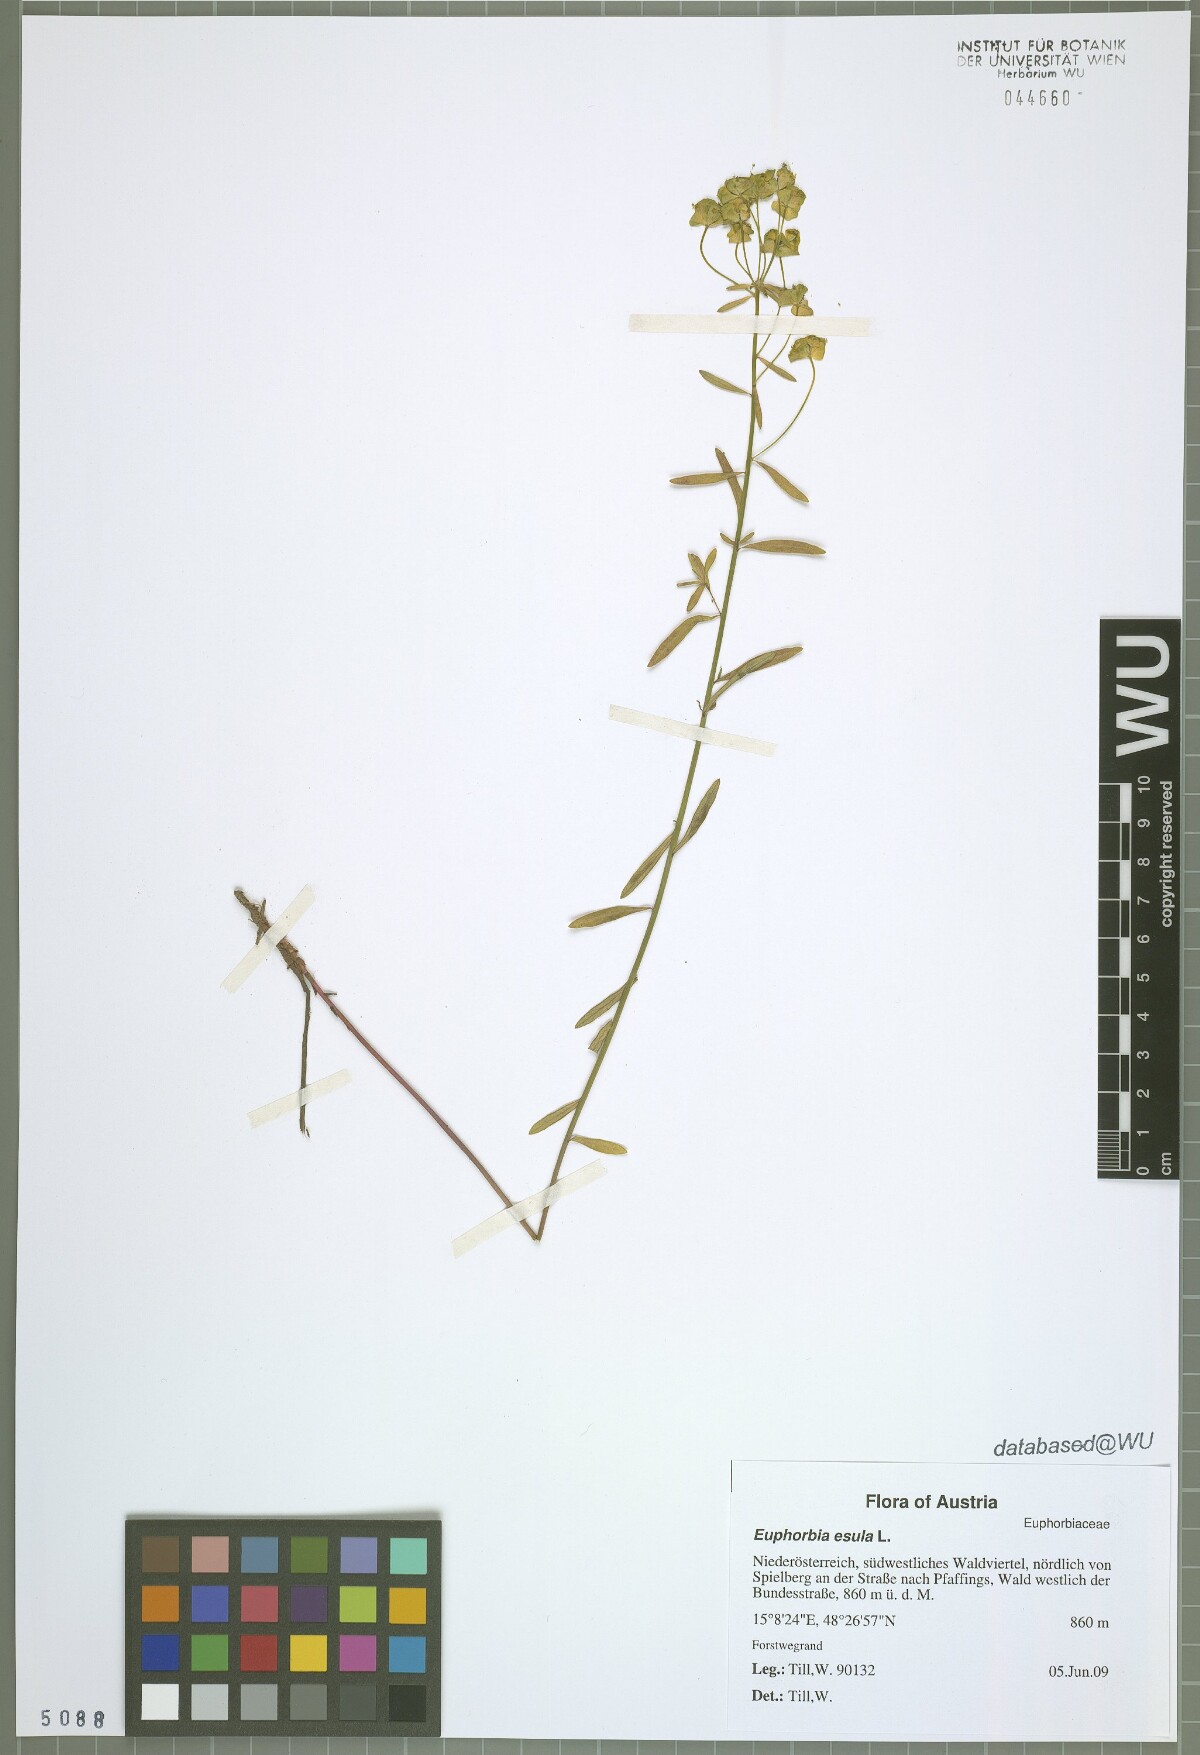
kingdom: Plantae
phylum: Tracheophyta
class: Magnoliopsida
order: Malpighiales
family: Euphorbiaceae
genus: Euphorbia
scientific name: Euphorbia esula
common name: Leafy spurge
